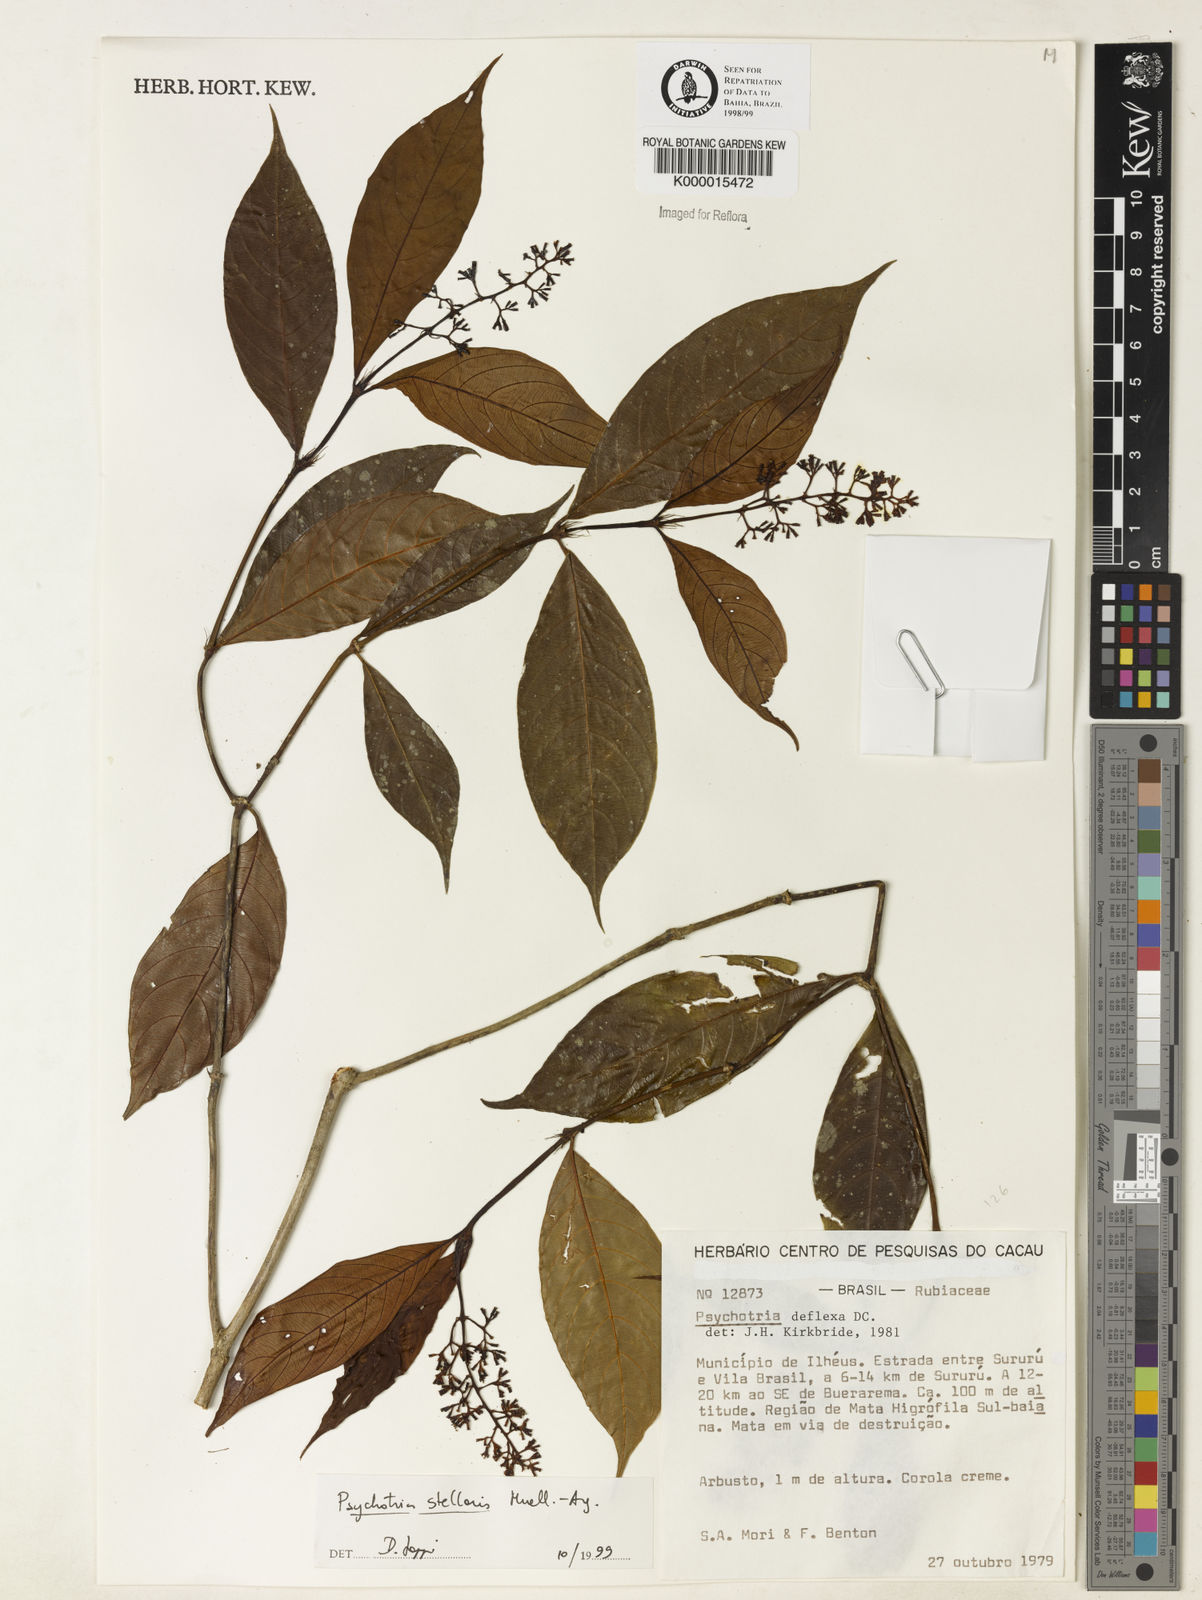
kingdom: Plantae
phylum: Tracheophyta
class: Magnoliopsida
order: Gentianales
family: Rubiaceae
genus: Palicourea
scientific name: Palicourea deflexa
